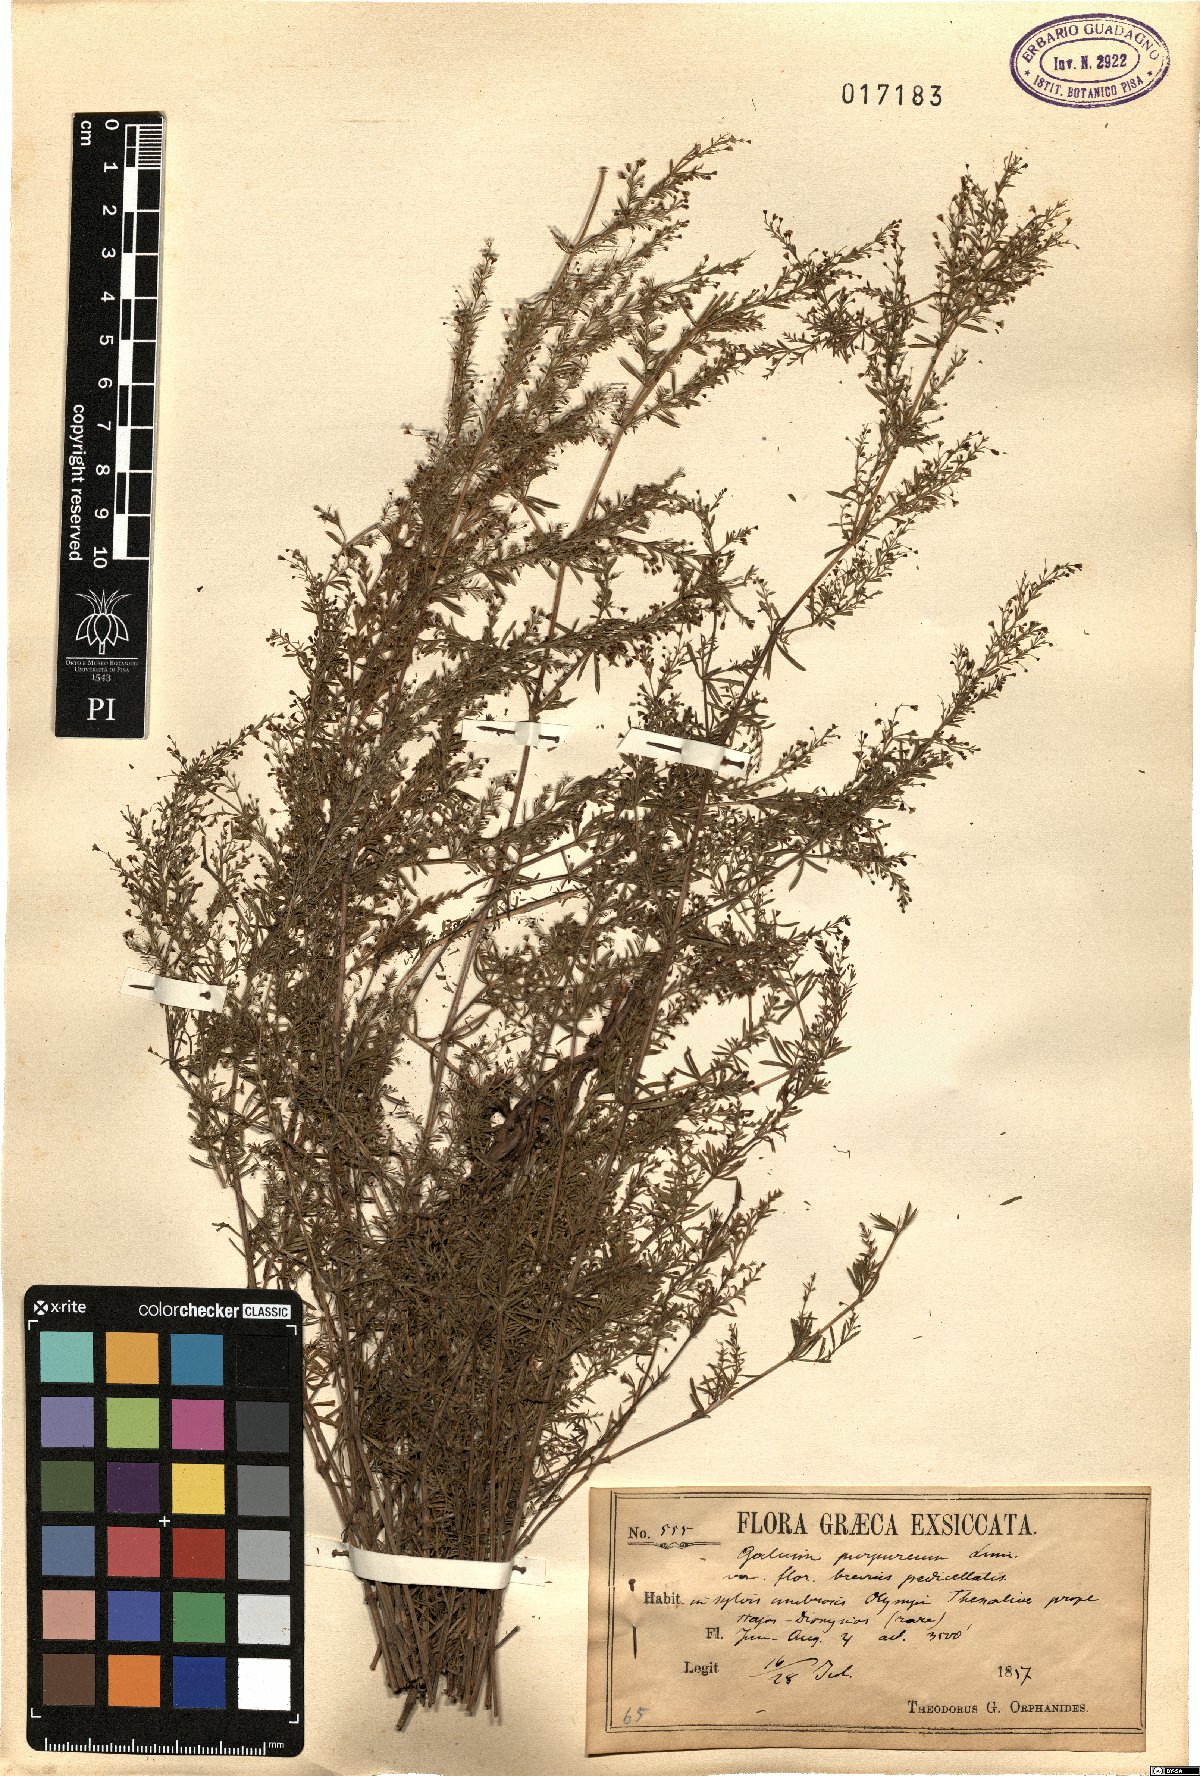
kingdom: Plantae
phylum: Tracheophyta
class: Magnoliopsida
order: Gentianales
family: Rubiaceae
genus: Thliphthisa
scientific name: Thliphthisa purpurea
